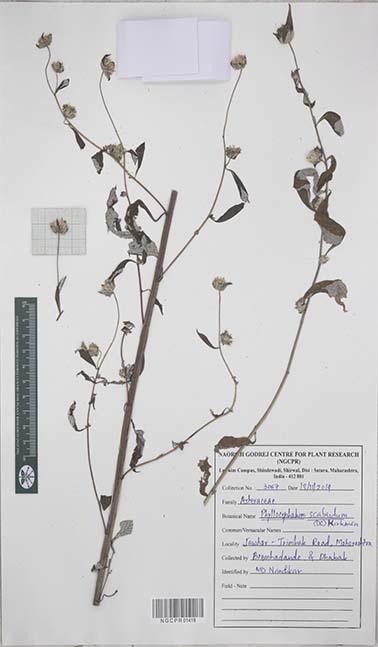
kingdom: Plantae
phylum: Tracheophyta
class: Magnoliopsida
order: Asterales
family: Asteraceae
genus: Phyllocephalum
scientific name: Phyllocephalum scabridum
